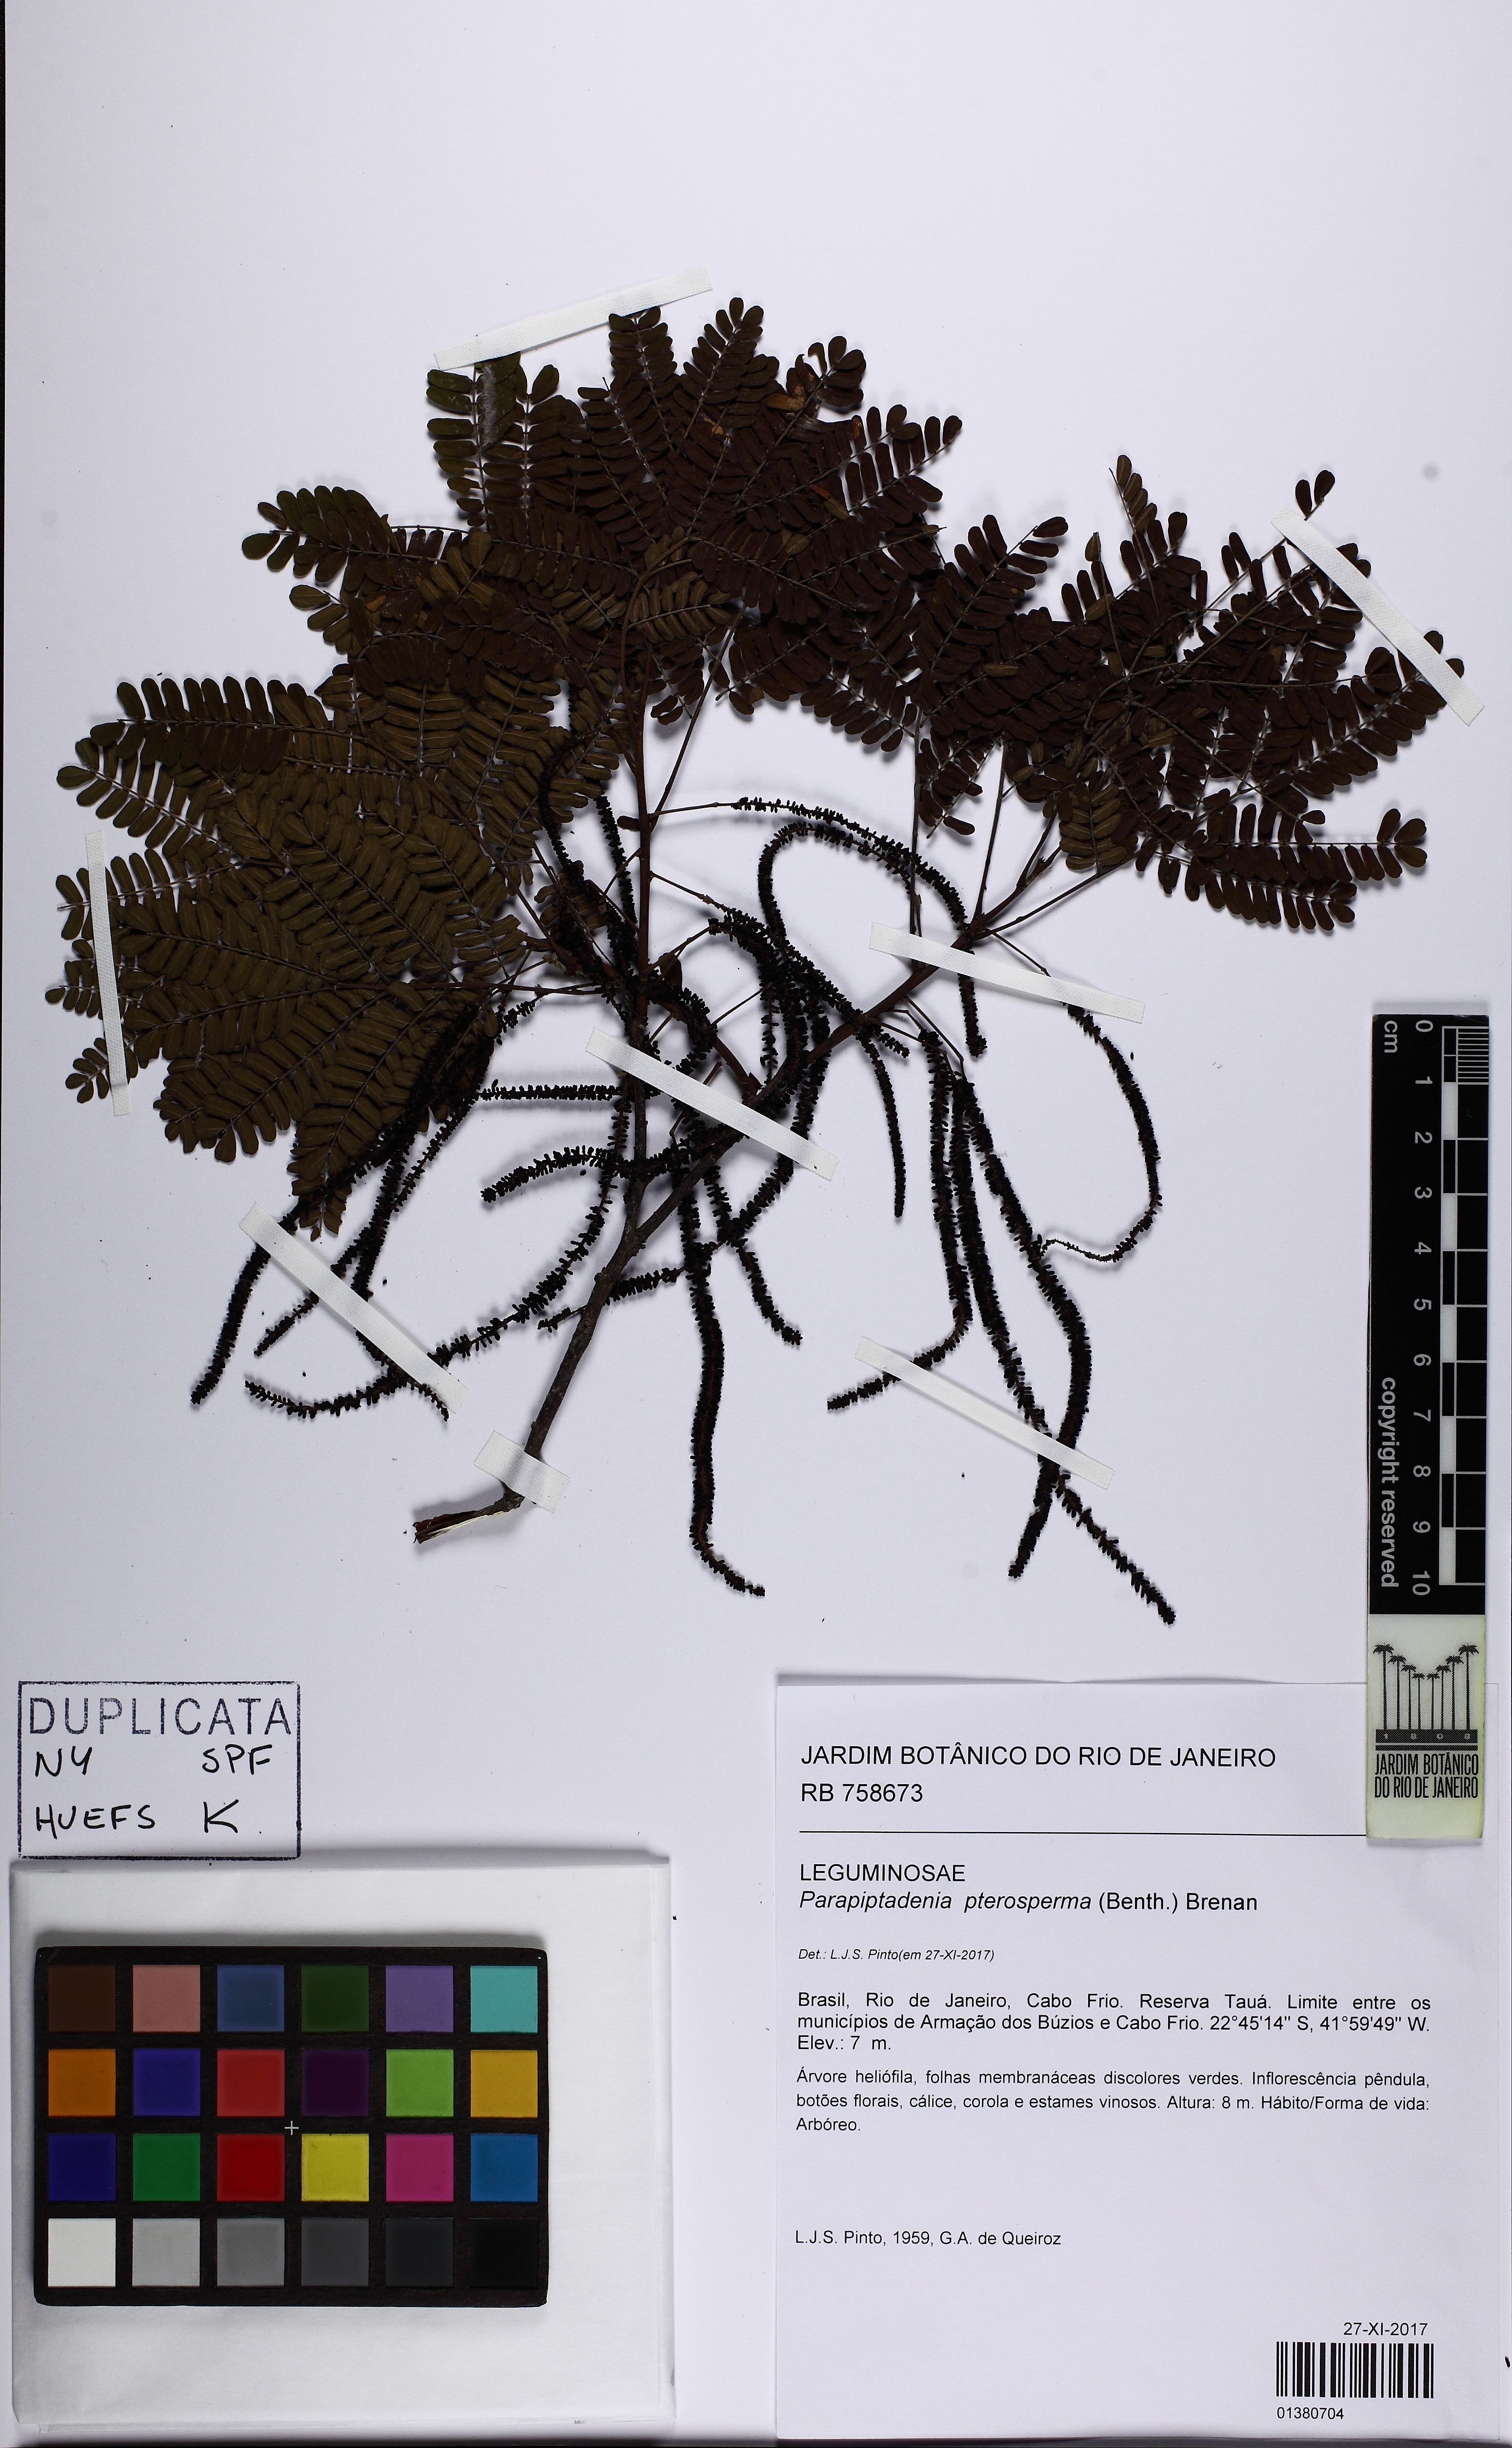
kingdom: Plantae
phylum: Tracheophyta
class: Magnoliopsida
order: Fabales
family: Fabaceae
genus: Parapiptadenia
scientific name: Parapiptadenia pterosperma
